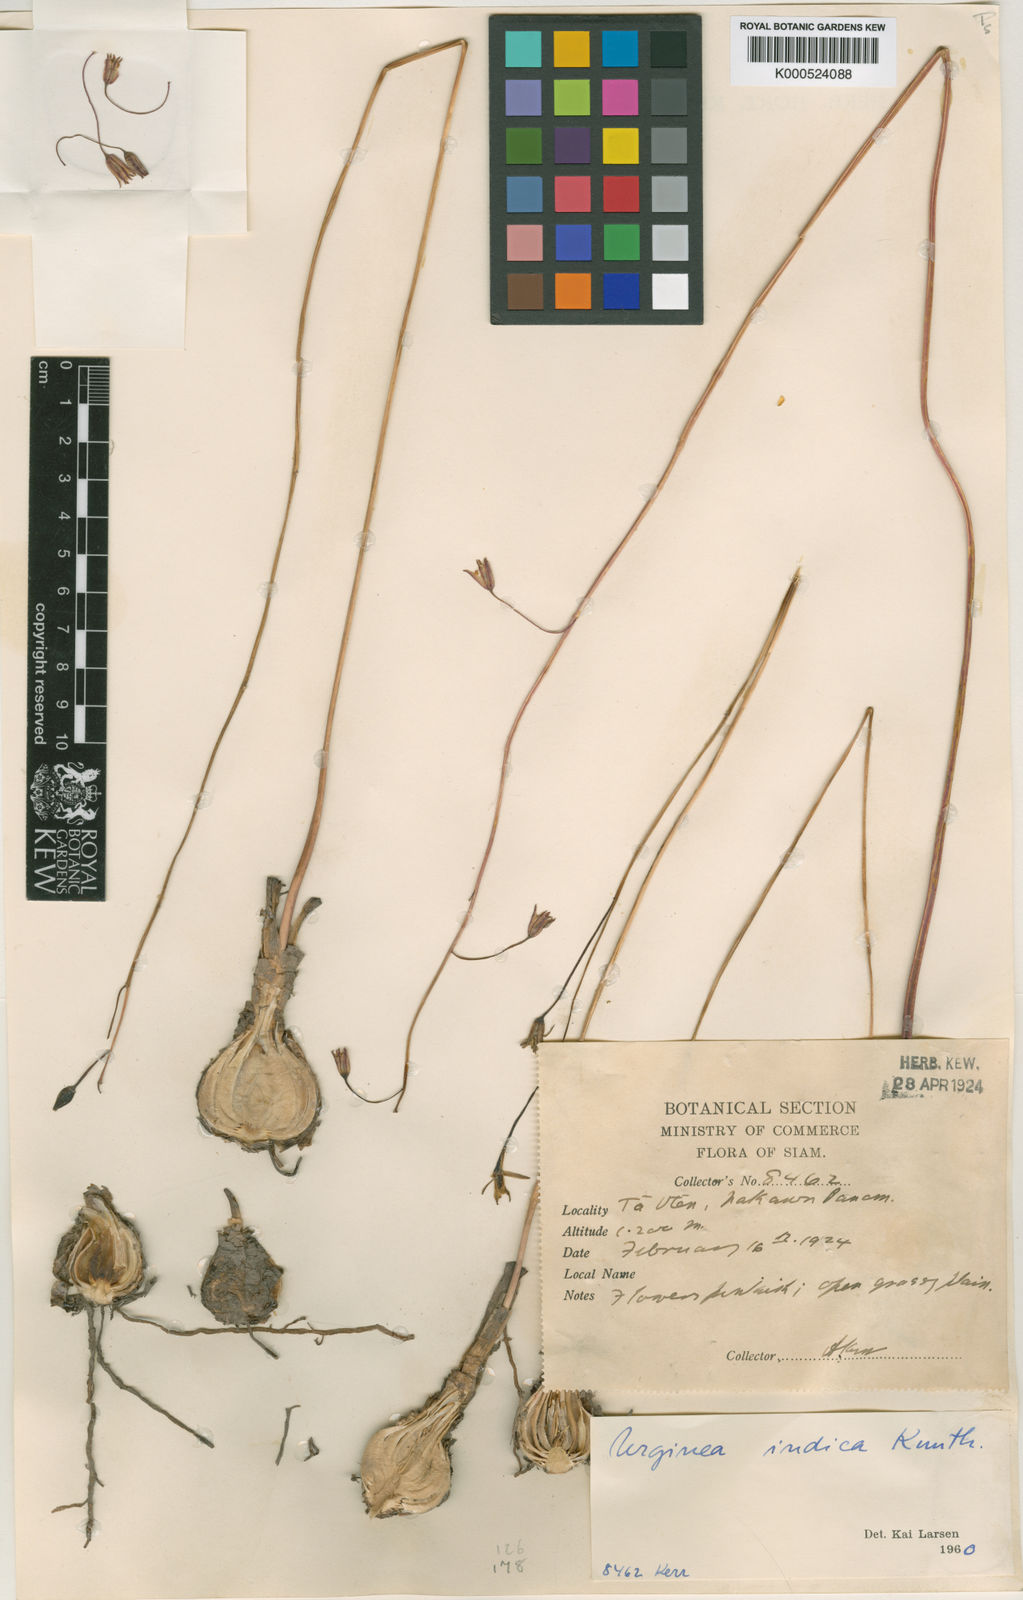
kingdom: Plantae
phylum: Tracheophyta
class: Liliopsida
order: Asparagales
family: Asparagaceae
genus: Drimia
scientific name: Drimia indica
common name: Indian-squill
